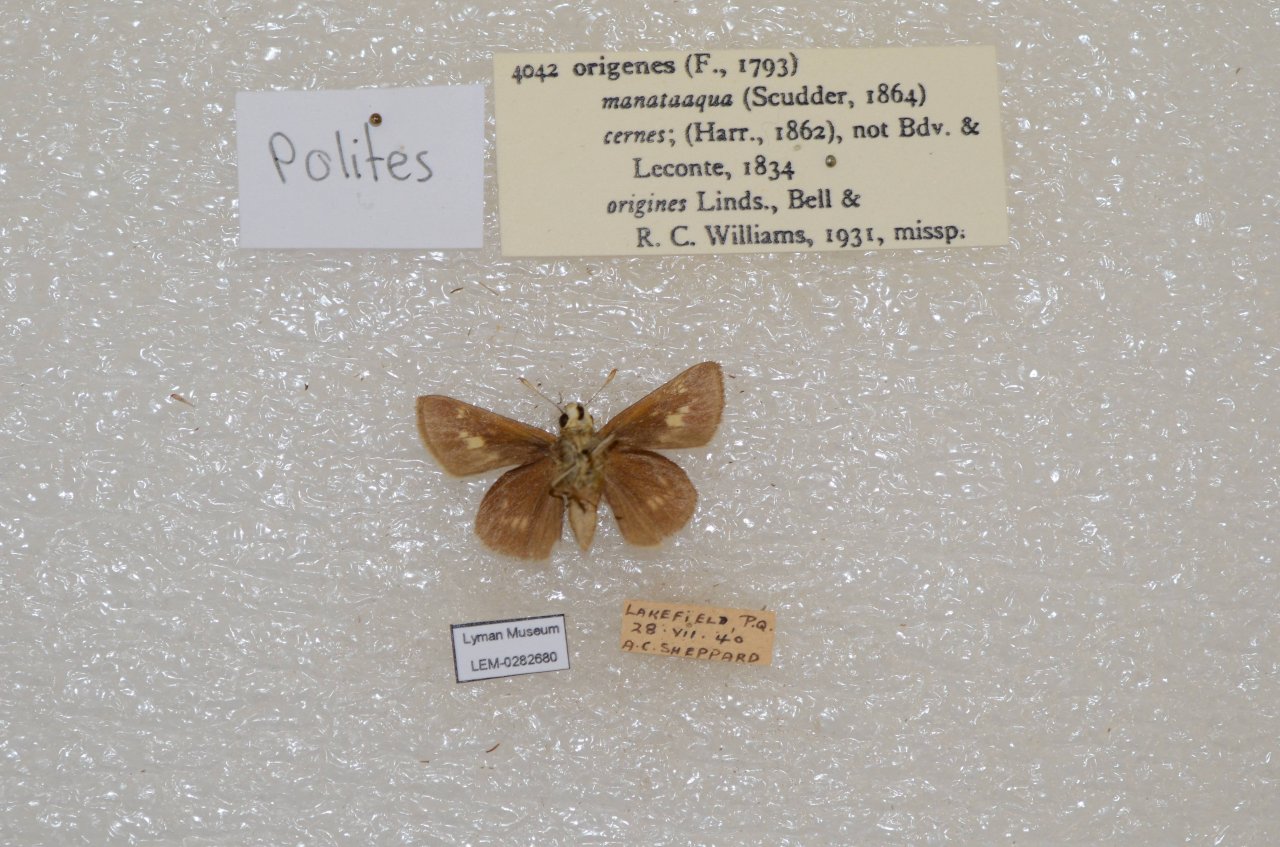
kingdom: Animalia
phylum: Arthropoda
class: Insecta
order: Lepidoptera
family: Hesperiidae
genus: Polites
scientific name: Polites
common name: Crossline Skipper
